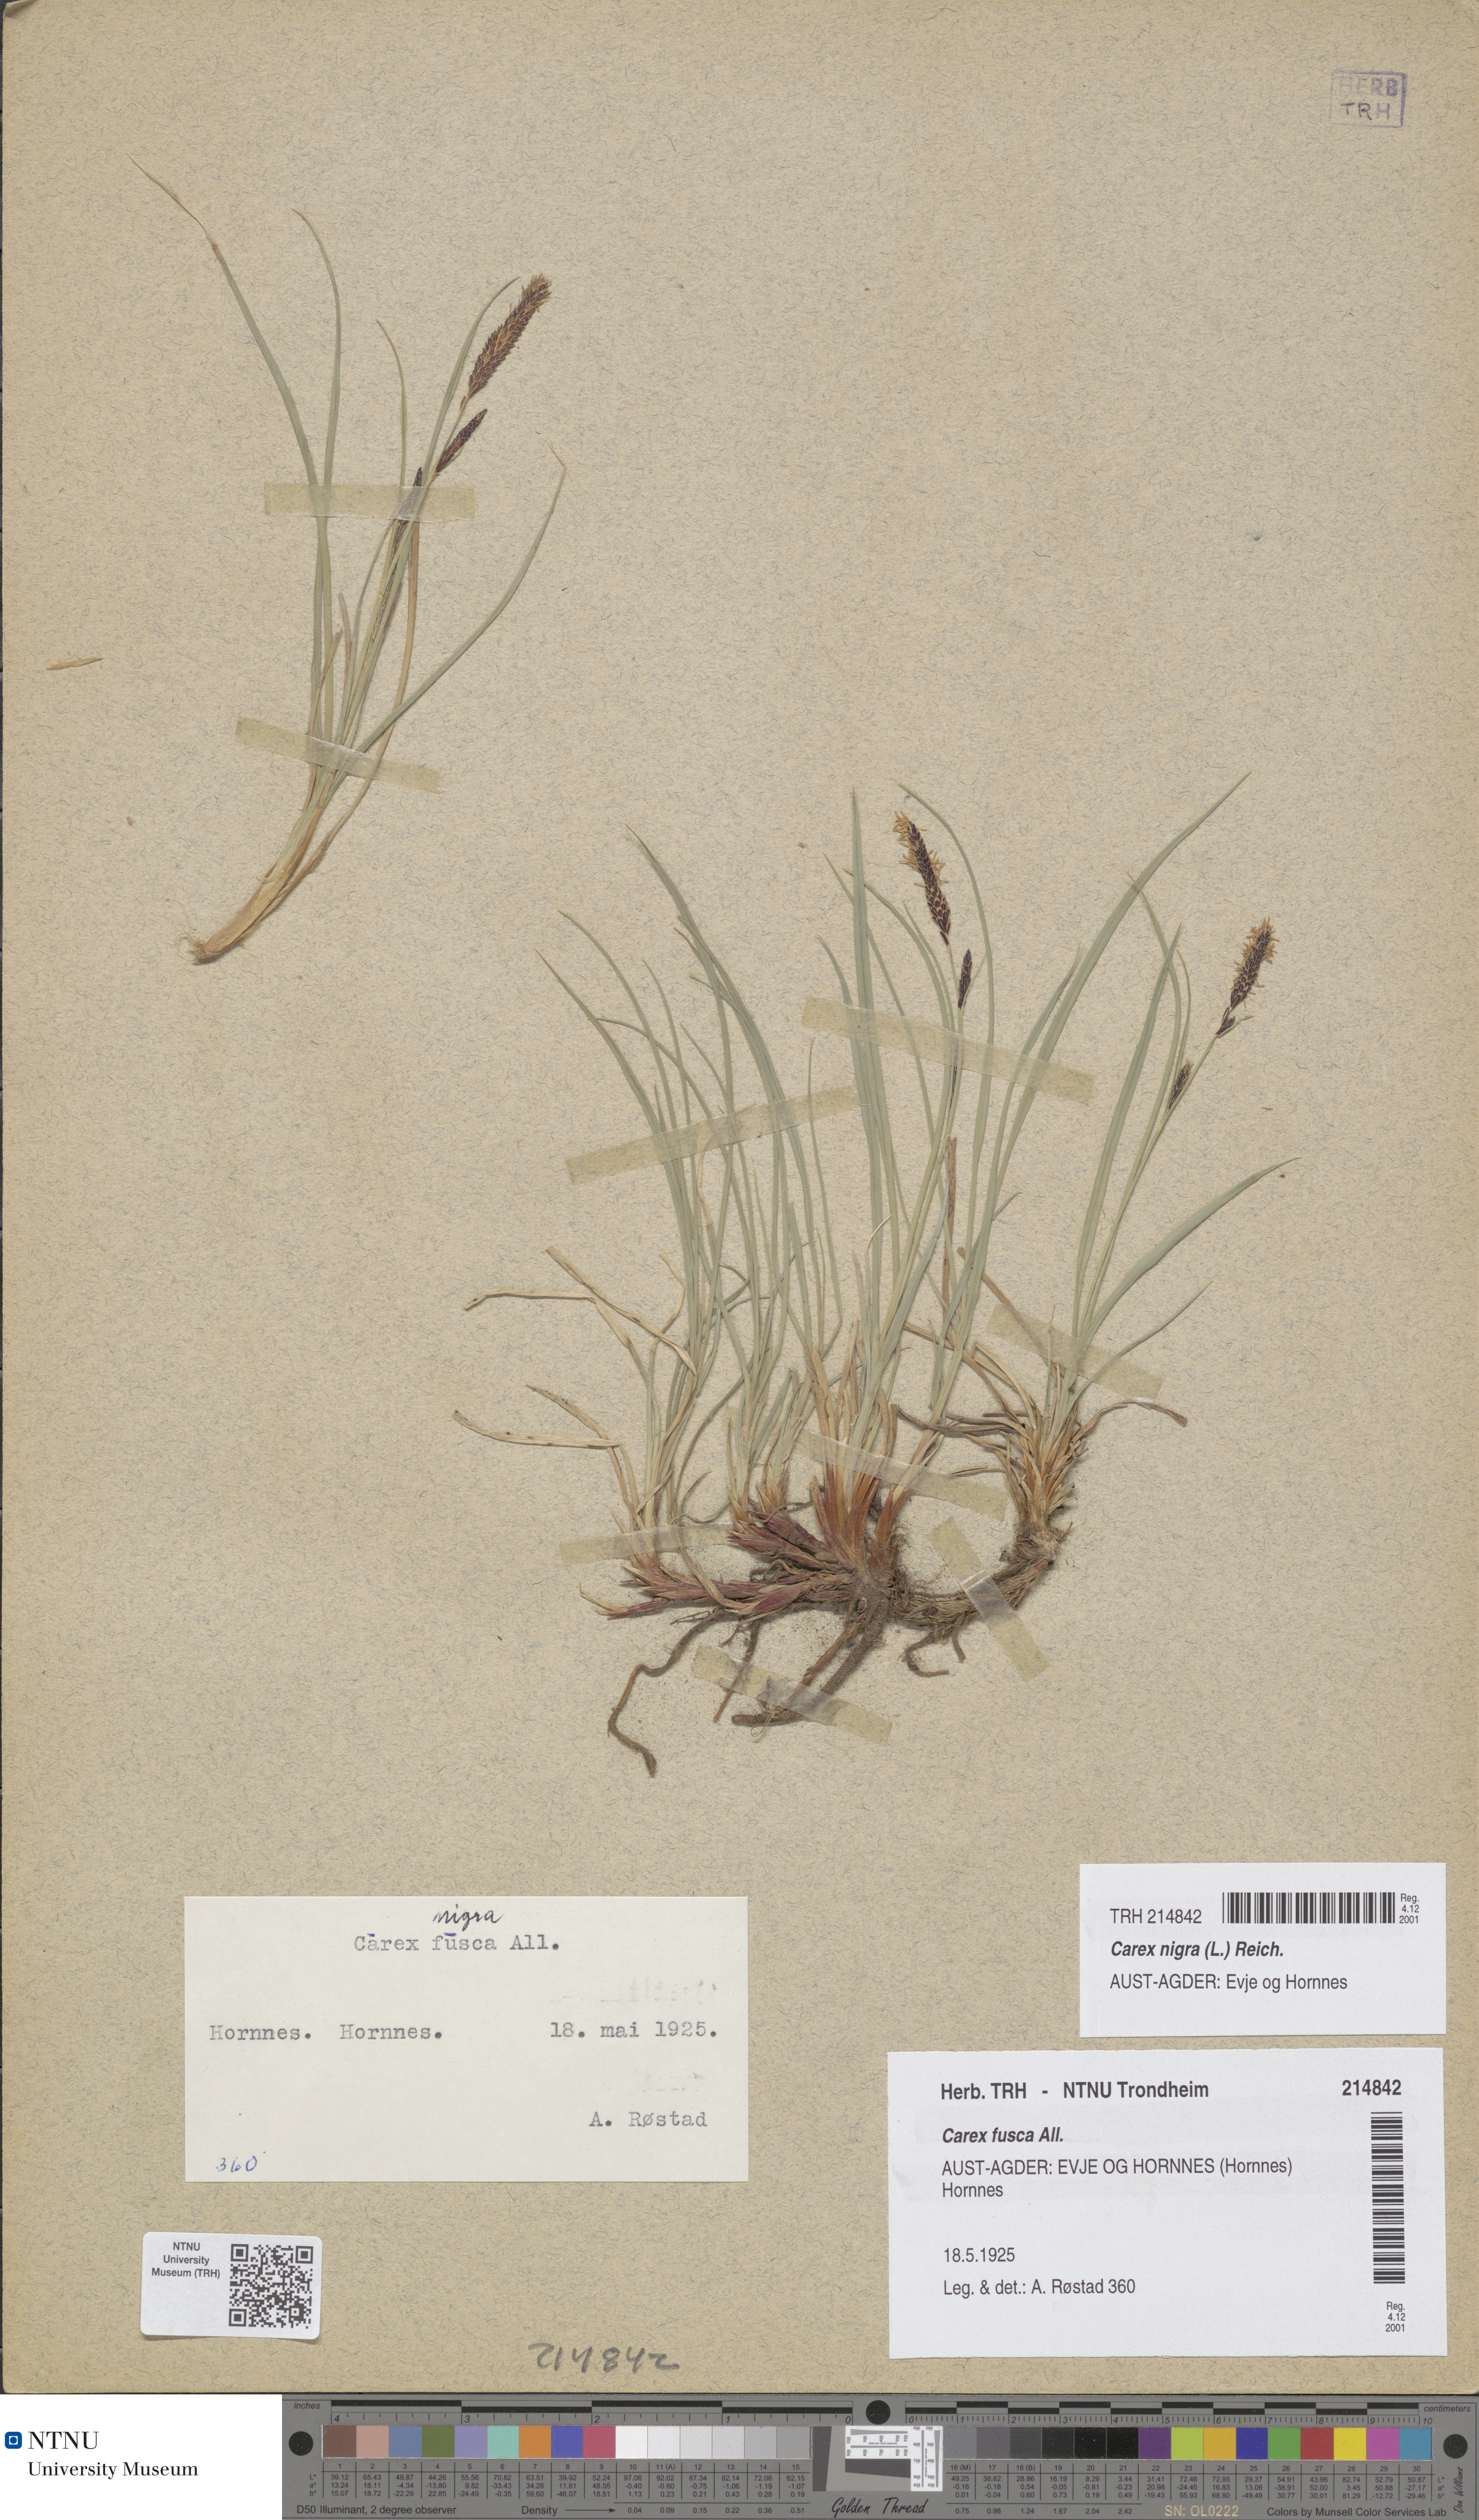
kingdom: Plantae
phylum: Tracheophyta
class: Liliopsida
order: Poales
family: Cyperaceae
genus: Carex
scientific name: Carex nigra
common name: Common sedge
